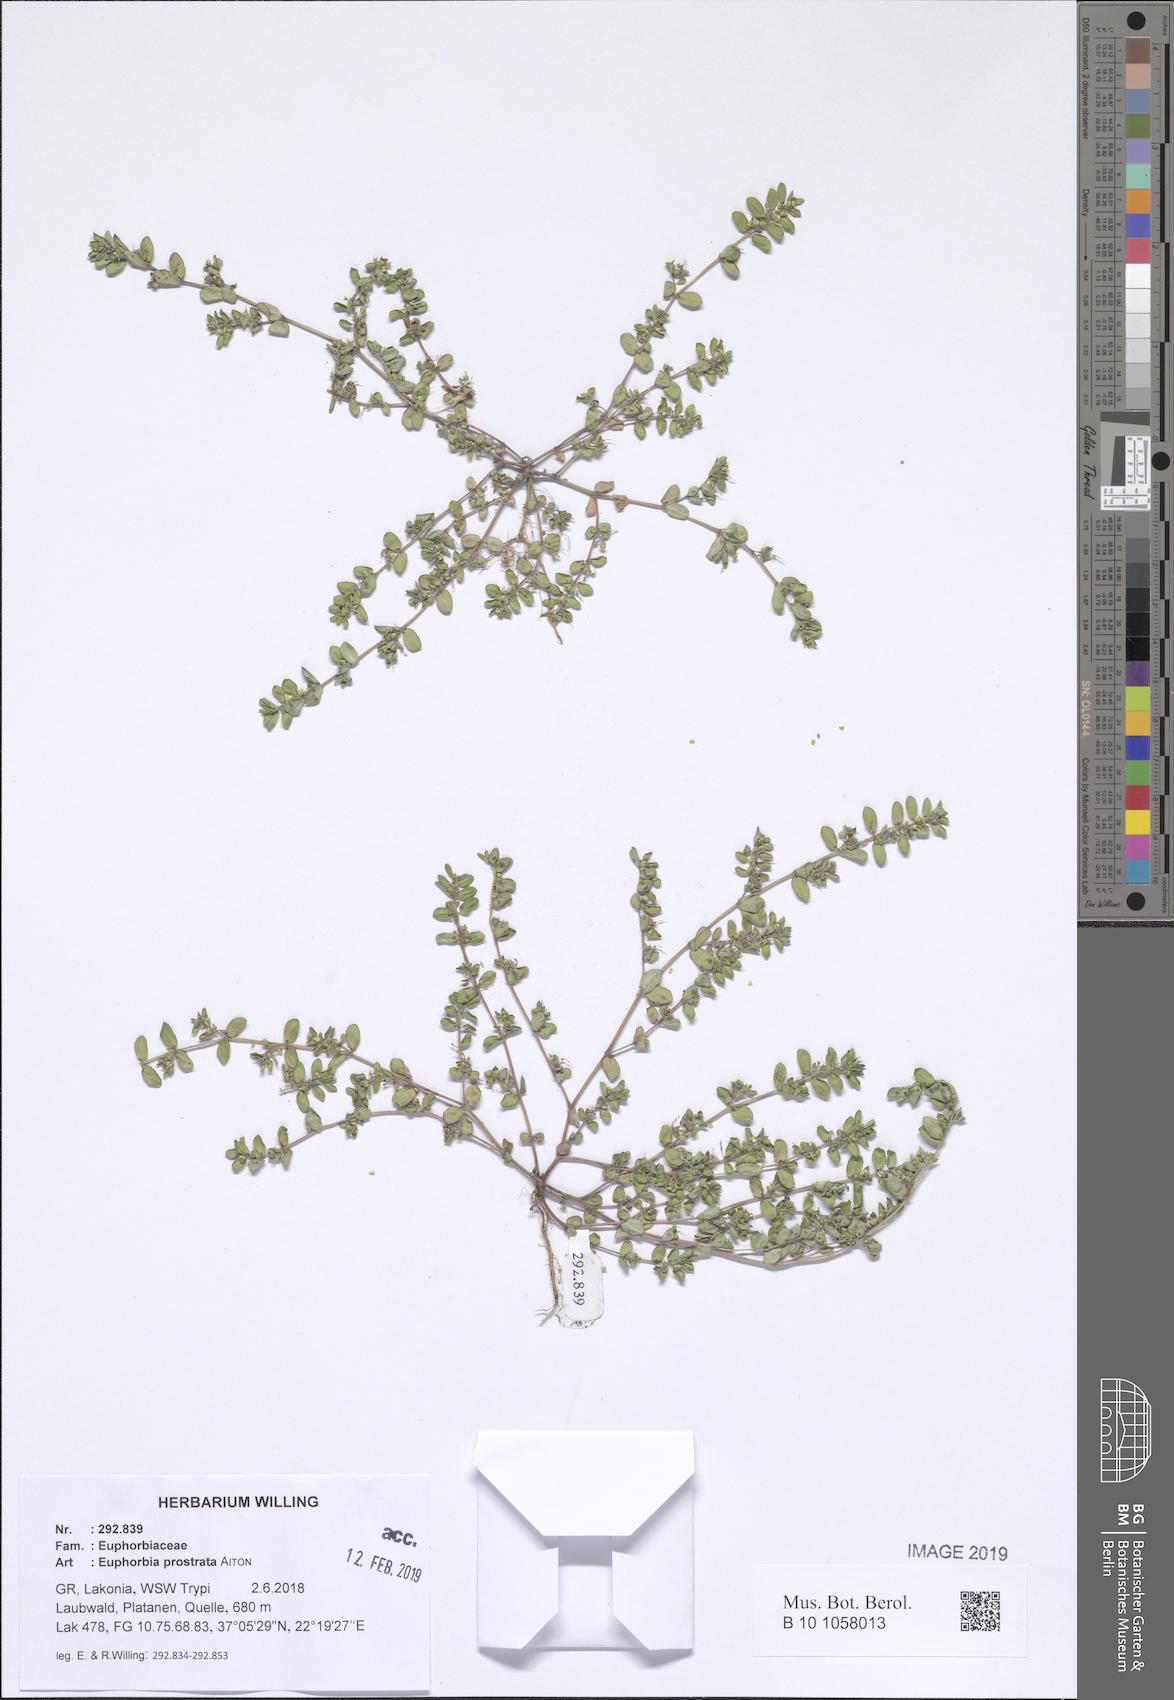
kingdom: Plantae
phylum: Tracheophyta
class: Magnoliopsida
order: Malpighiales
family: Euphorbiaceae
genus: Euphorbia
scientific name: Euphorbia prostrata
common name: Prostrate sandmat
